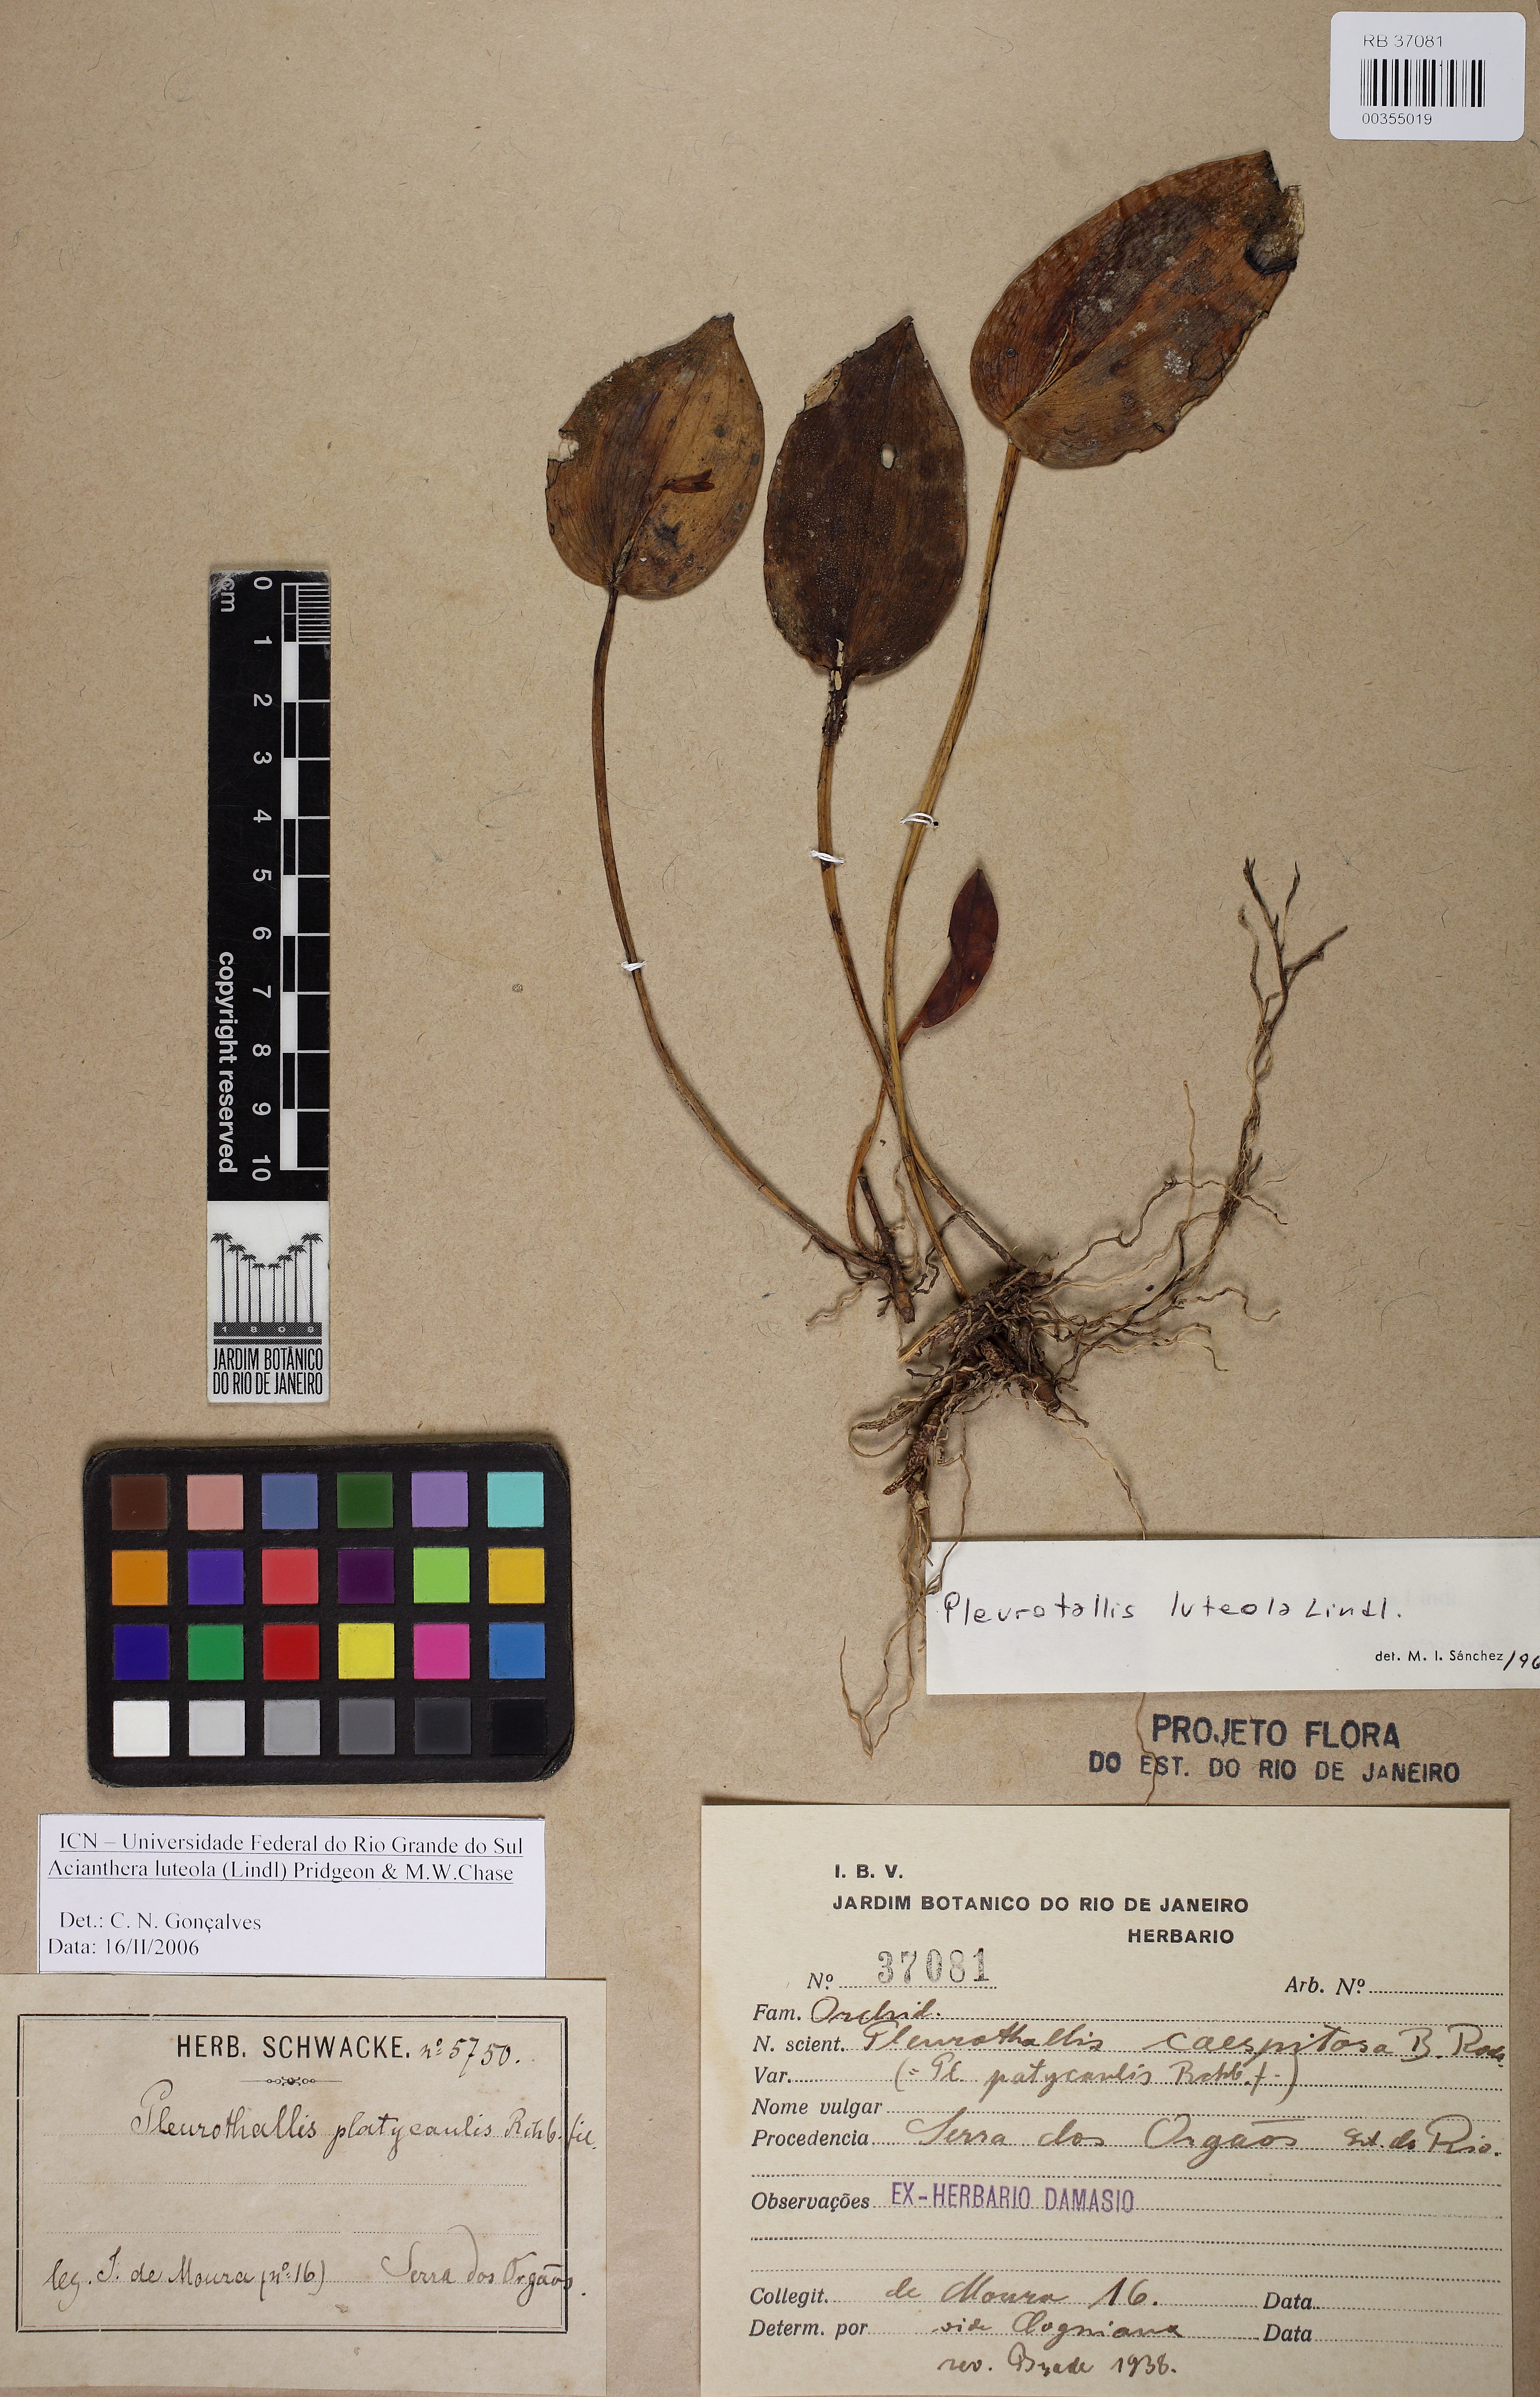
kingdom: Plantae
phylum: Tracheophyta
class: Liliopsida
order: Asparagales
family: Orchidaceae
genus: Acianthera
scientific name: Acianthera luteola
